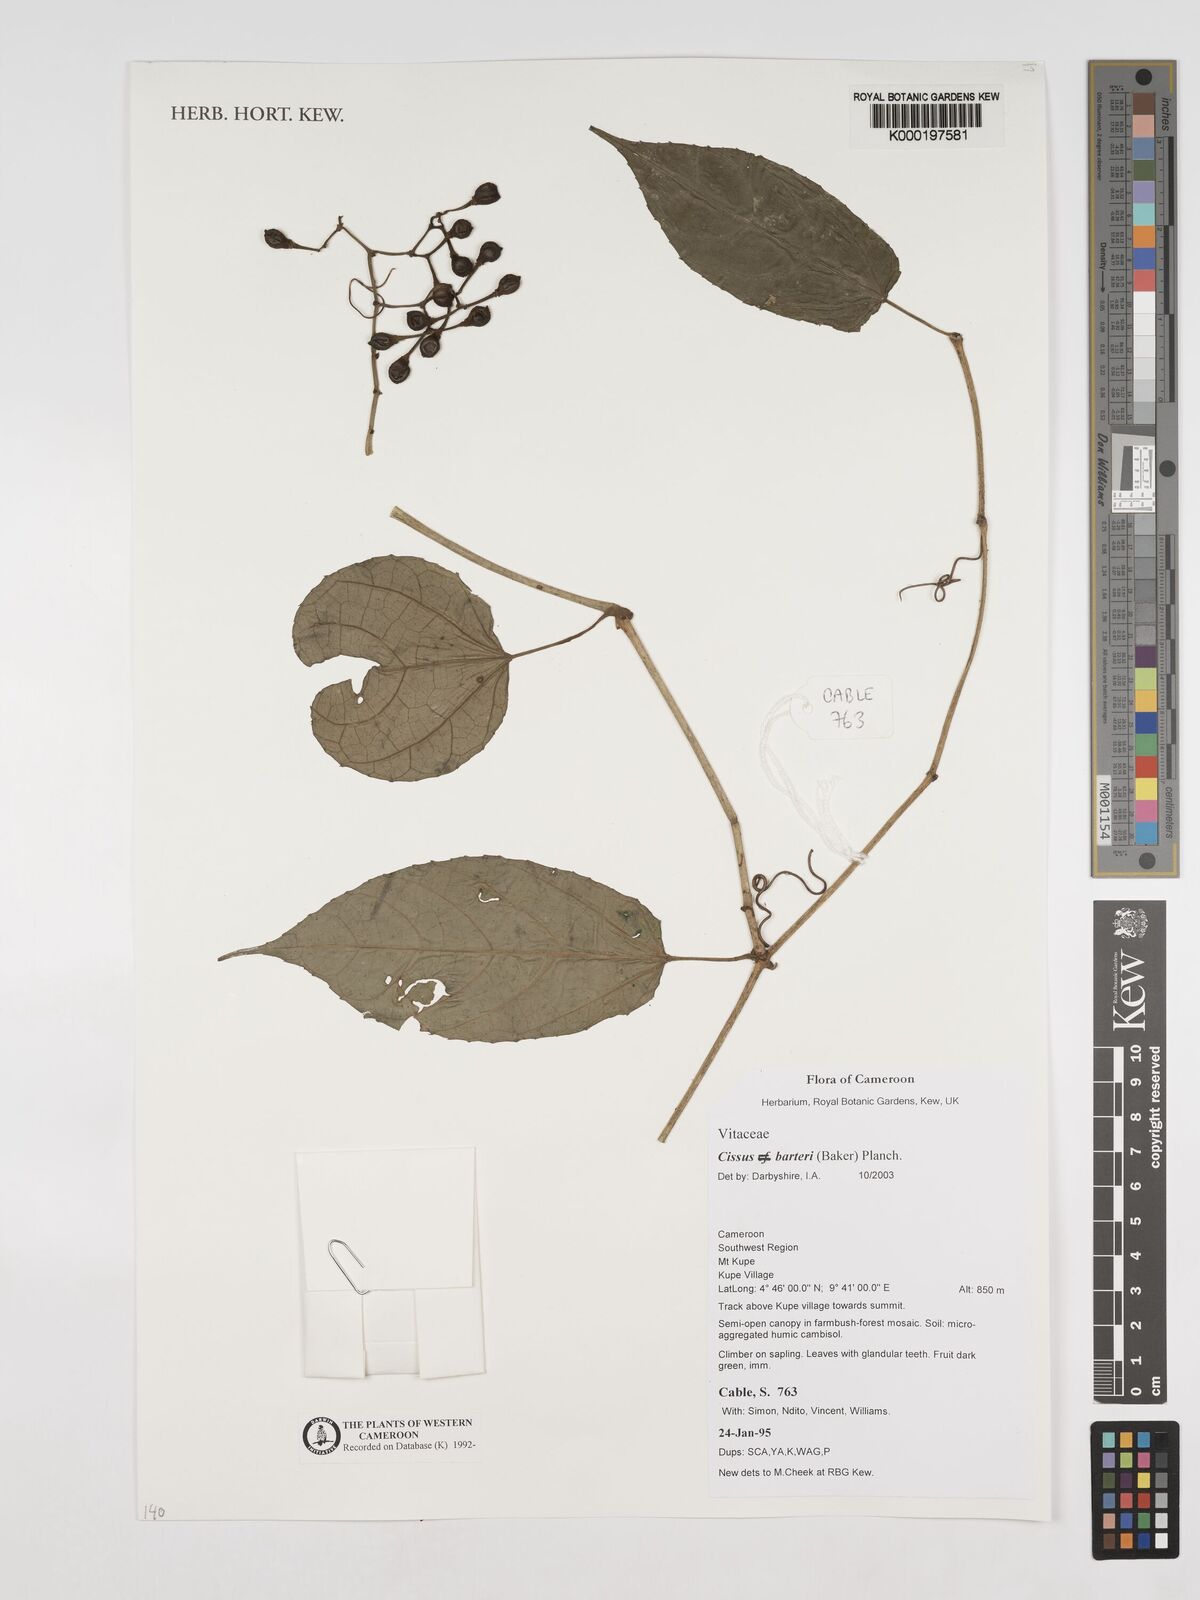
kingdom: Plantae
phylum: Tracheophyta
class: Magnoliopsida
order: Vitales
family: Vitaceae
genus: Cissus
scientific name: Cissus barteri
